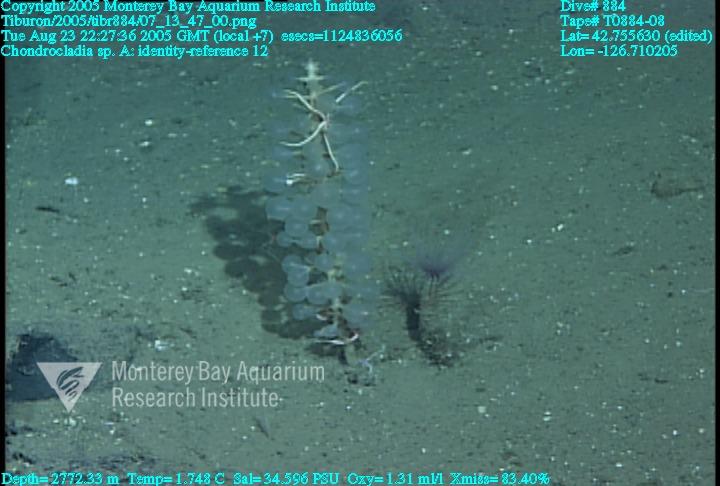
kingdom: Animalia
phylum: Porifera
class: Demospongiae
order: Poecilosclerida
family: Cladorhizidae
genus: Chondrocladia
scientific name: Chondrocladia
